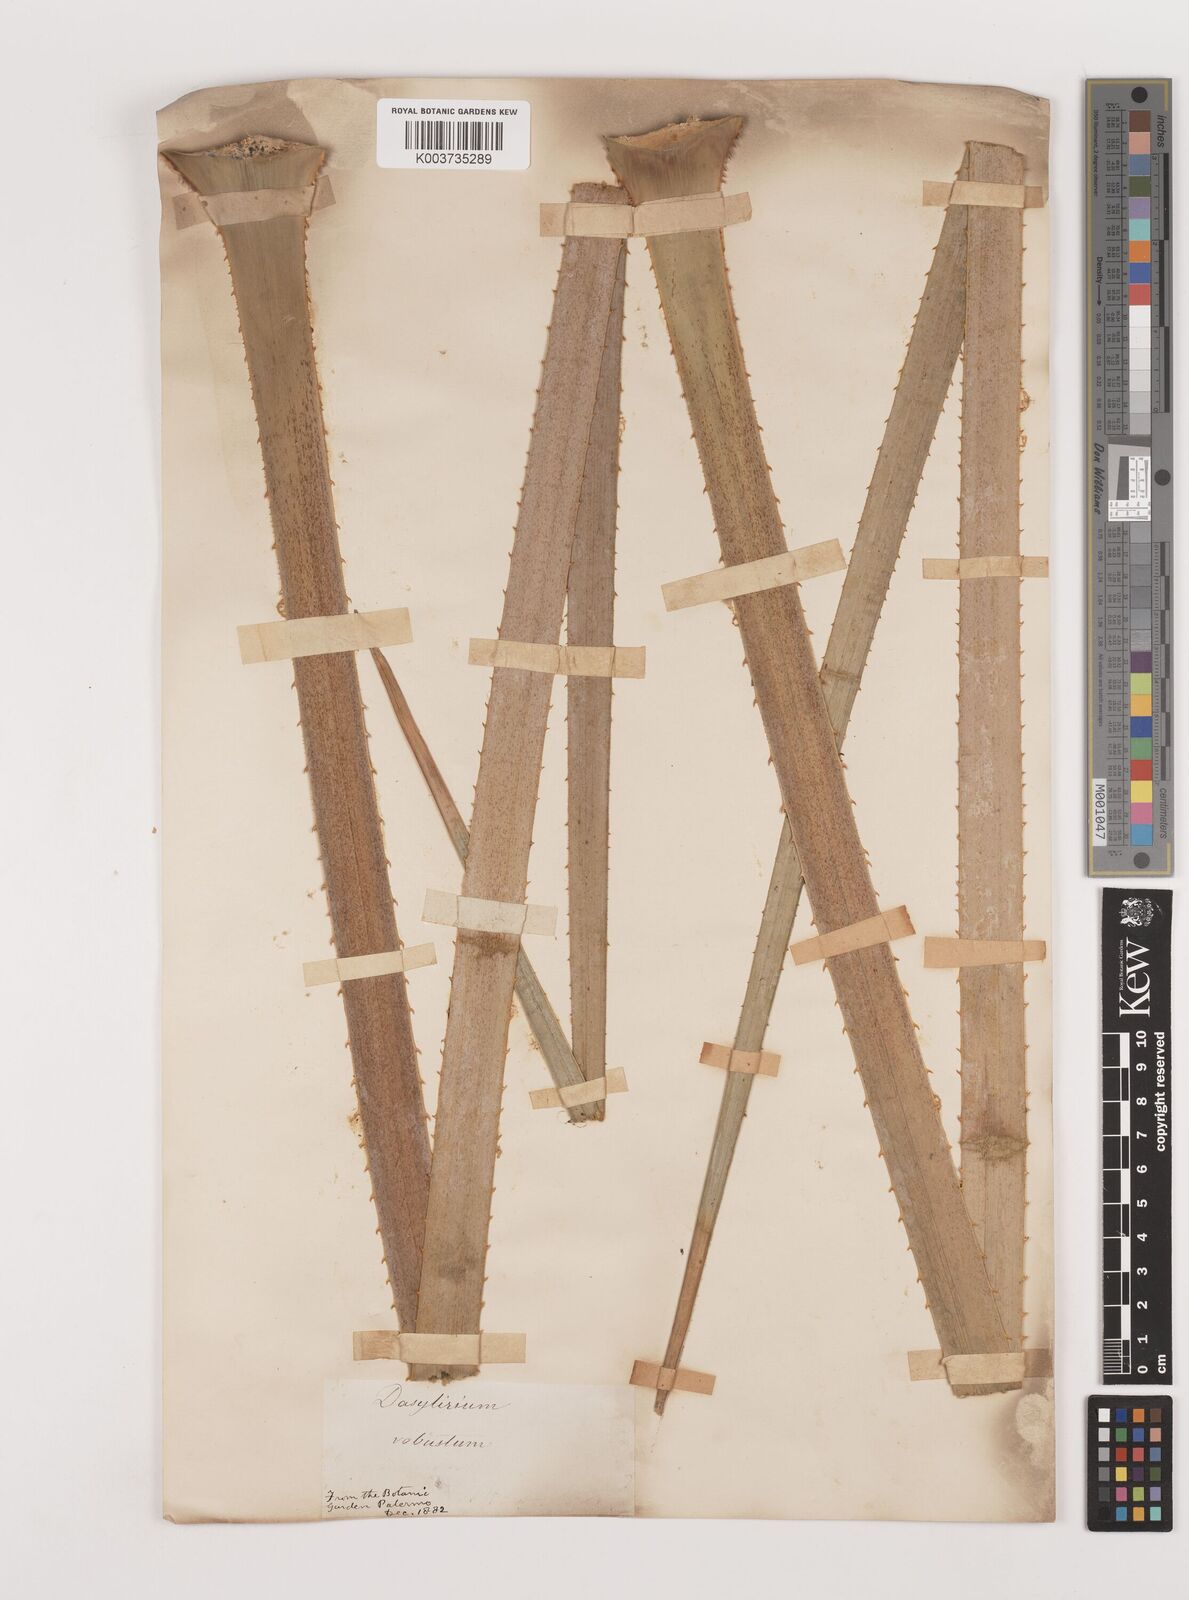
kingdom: Plantae
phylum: Tracheophyta
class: Liliopsida
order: Asparagales
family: Asparagaceae
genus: Dasylirion
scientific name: Dasylirion serratifolium
